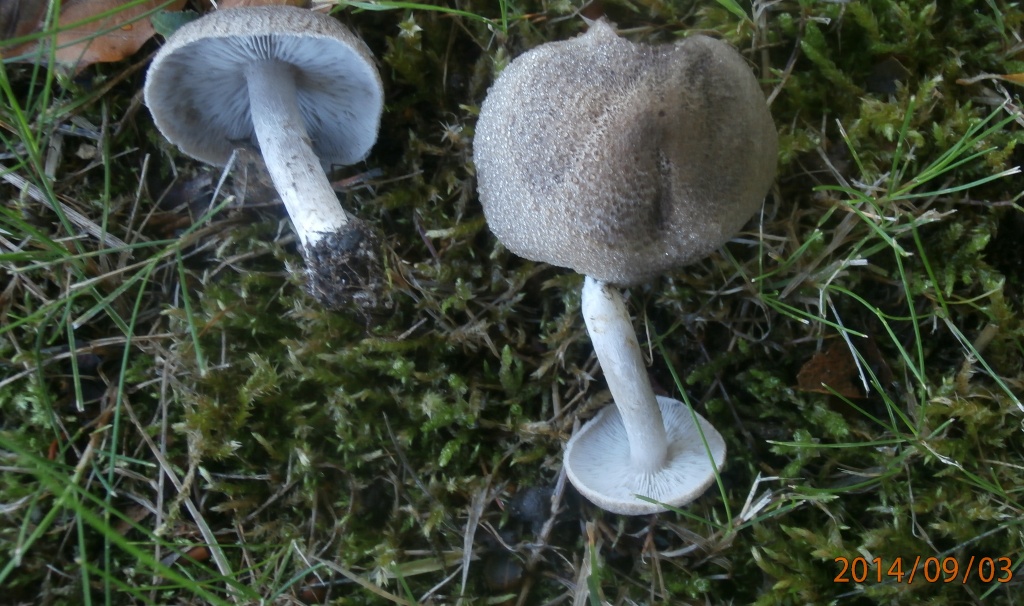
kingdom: Fungi
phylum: Basidiomycota
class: Agaricomycetes
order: Agaricales
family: Tricholomataceae
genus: Tricholoma
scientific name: Tricholoma scalpturatum
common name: gulplettet ridderhat
